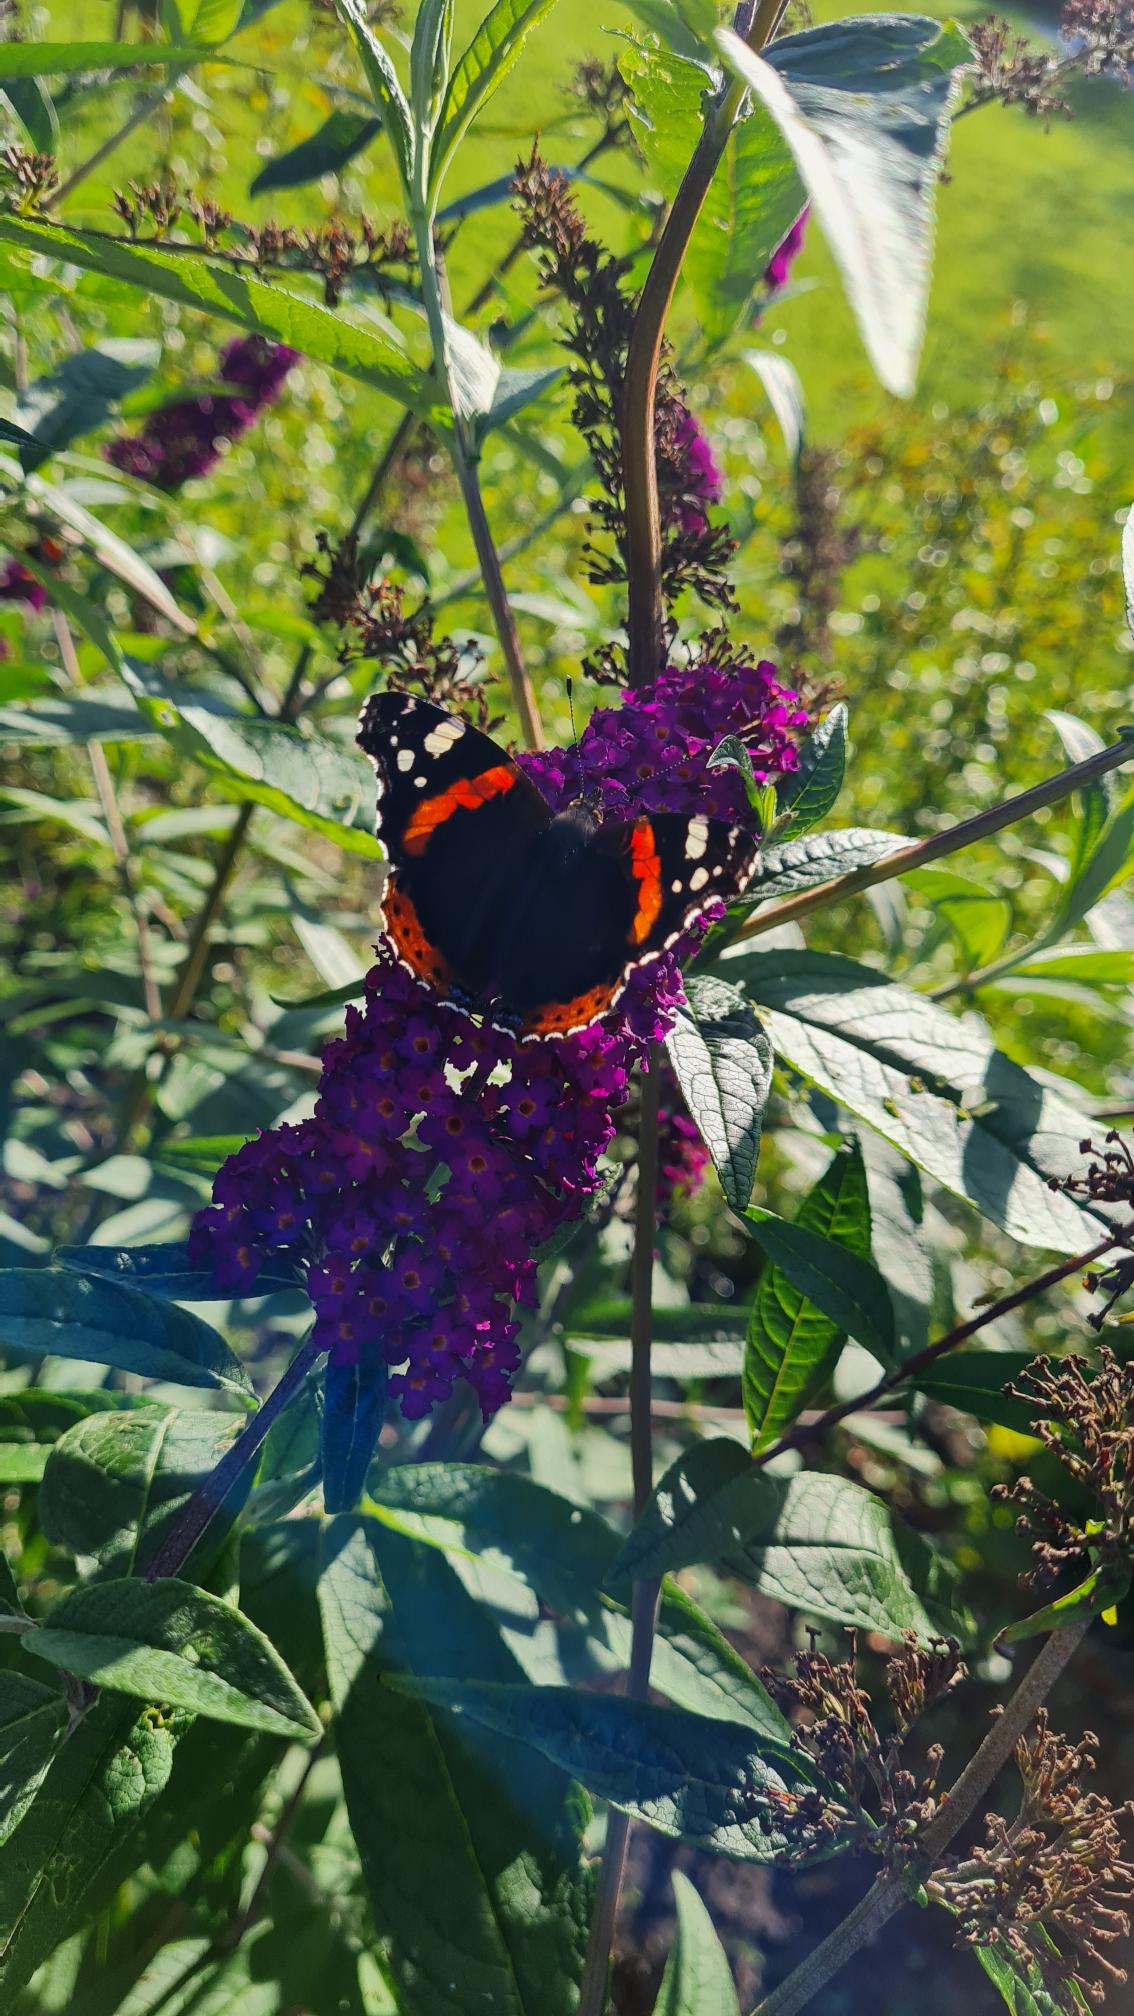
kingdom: Animalia
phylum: Arthropoda
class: Insecta
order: Lepidoptera
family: Nymphalidae
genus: Vanessa
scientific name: Vanessa atalanta
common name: Admiral
